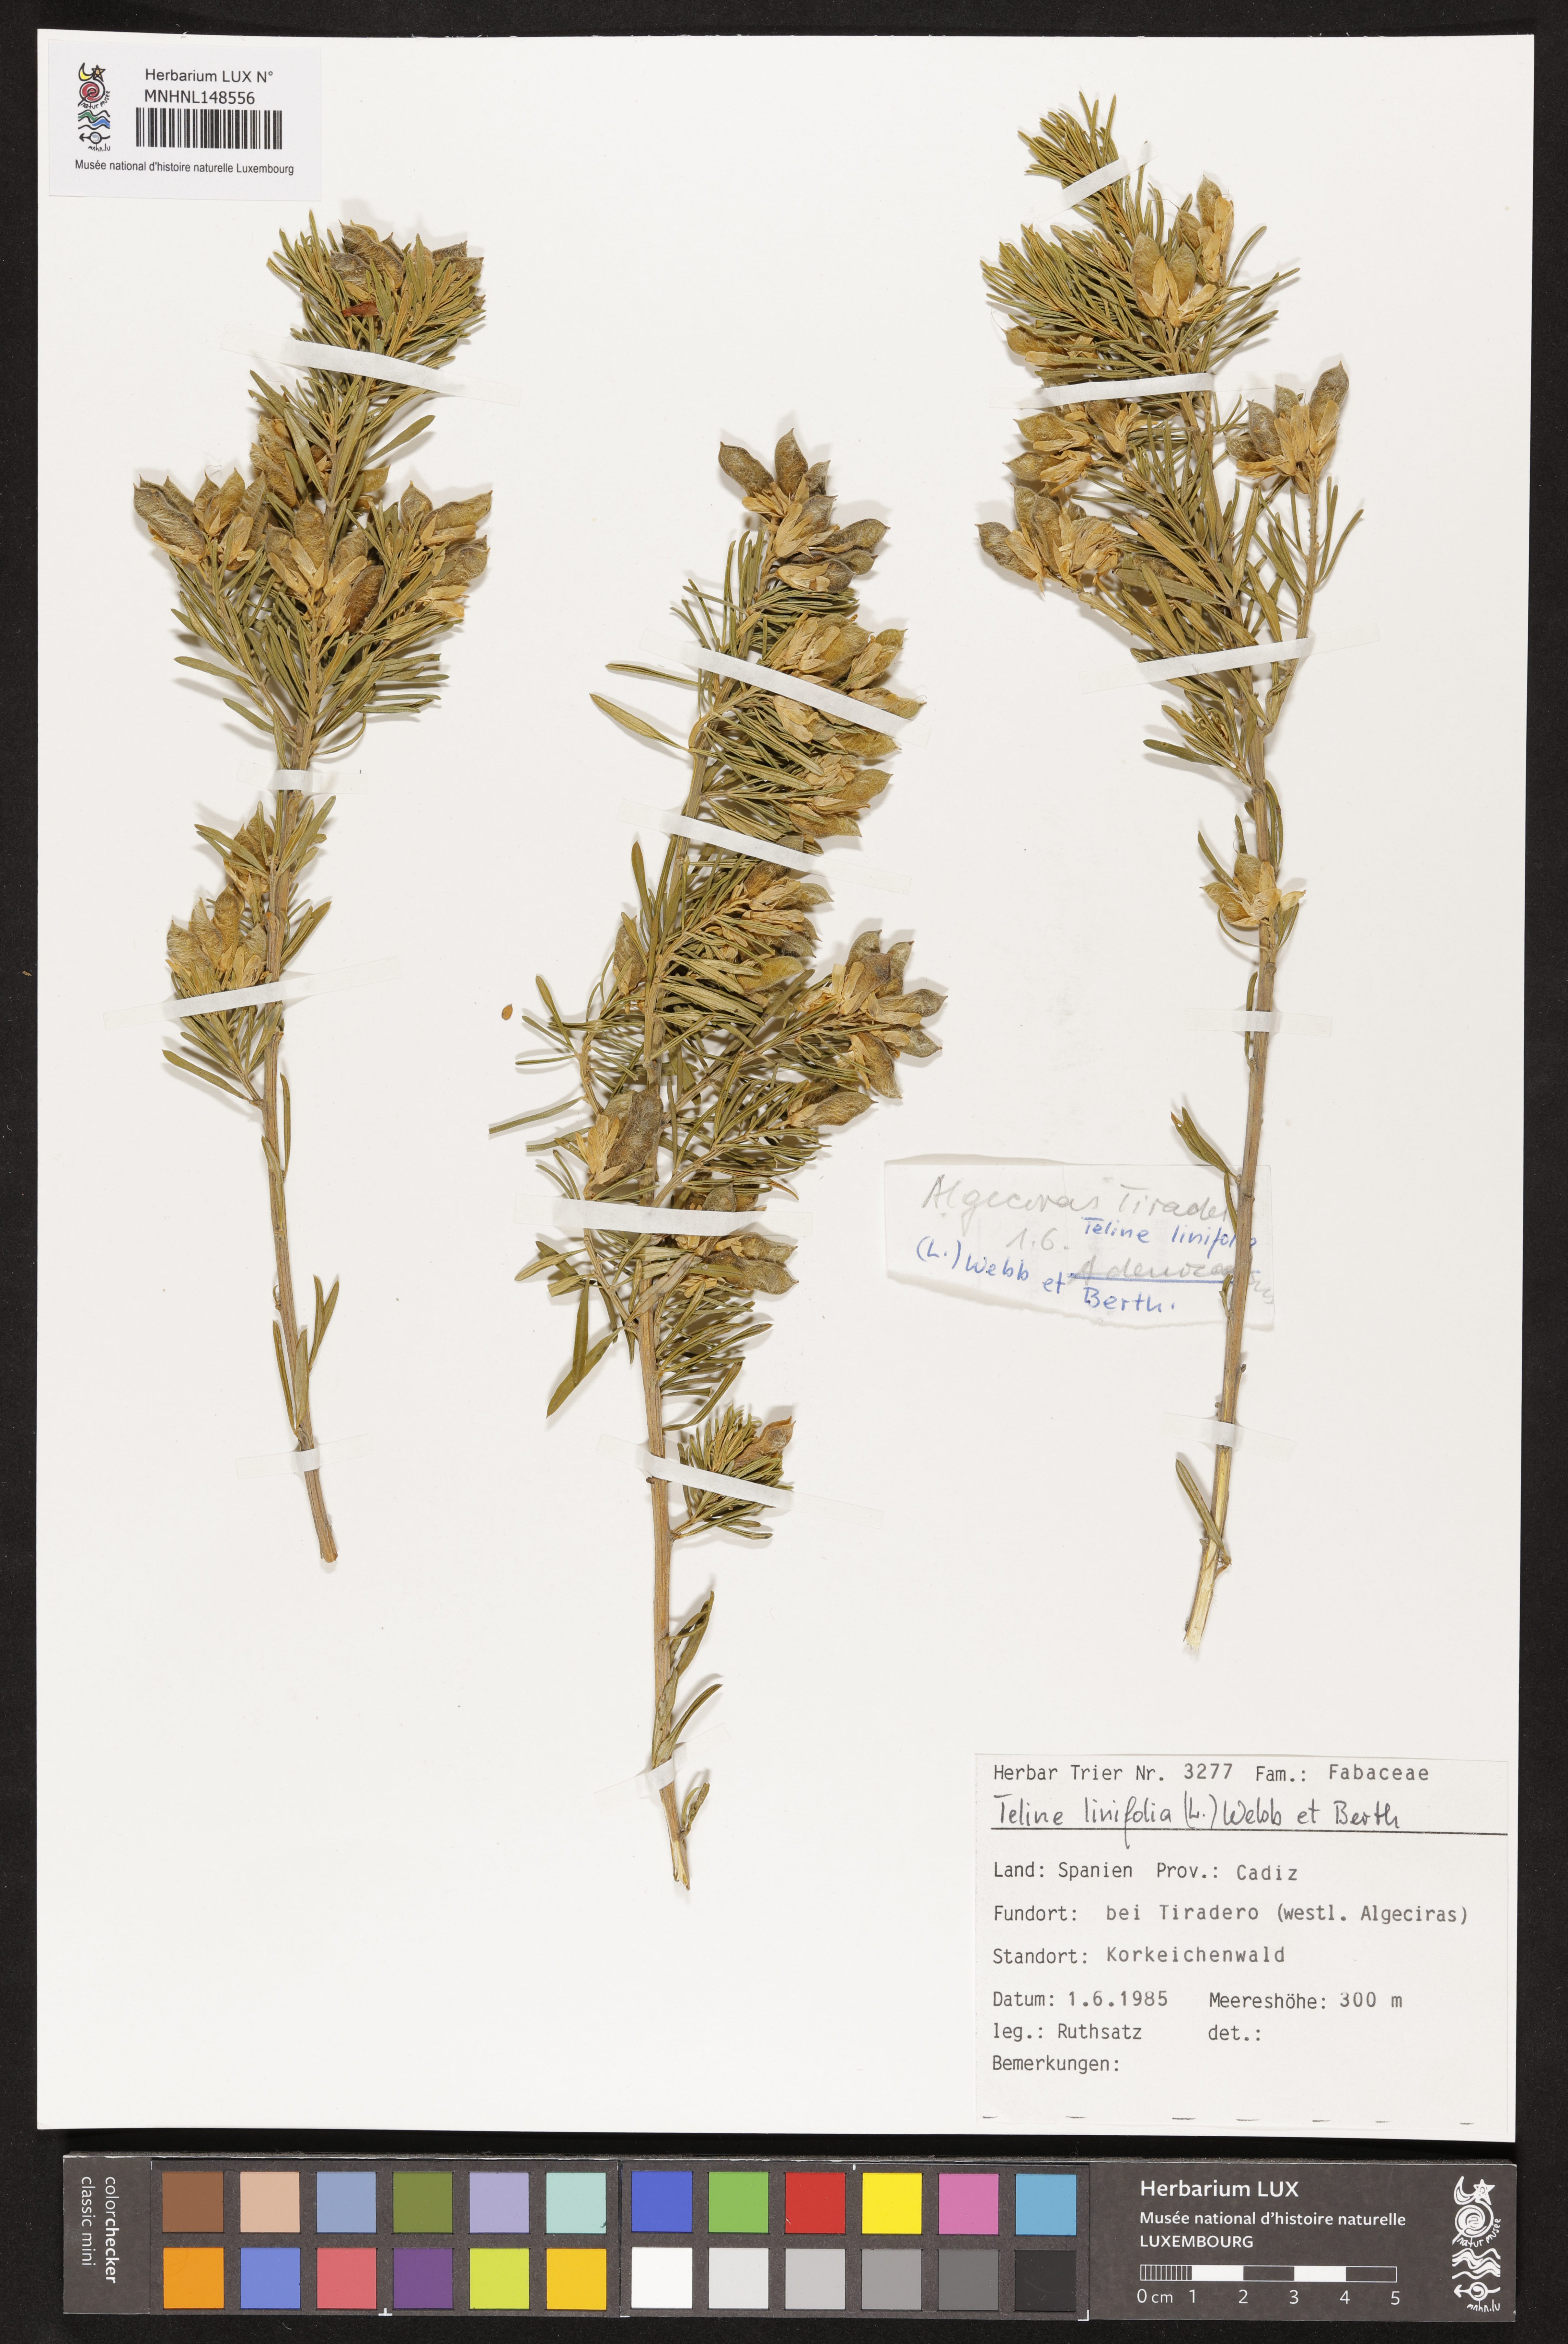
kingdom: Plantae
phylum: Tracheophyta
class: Magnoliopsida
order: Fabales
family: Fabaceae
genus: Genista
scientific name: Genista linifolia
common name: Mediterranean broom
